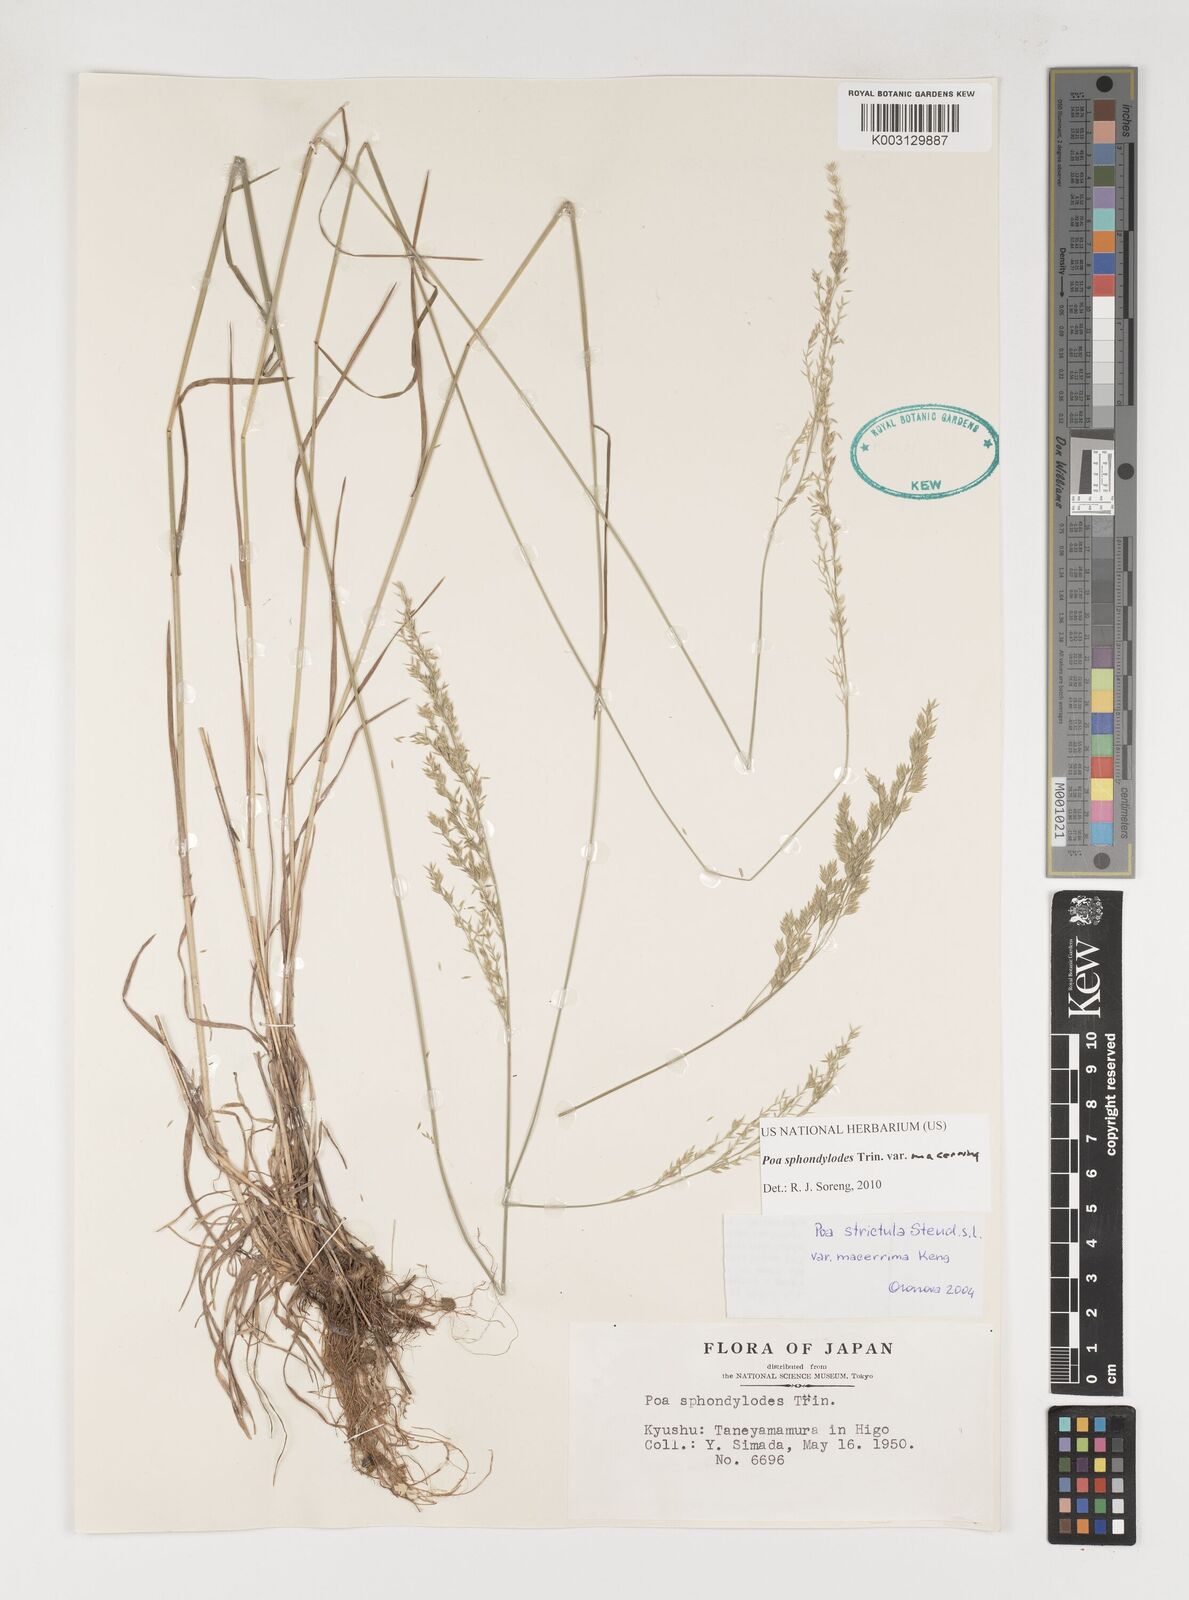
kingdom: Plantae
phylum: Tracheophyta
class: Liliopsida
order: Poales
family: Poaceae
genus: Poa
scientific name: Poa sphondylodes
